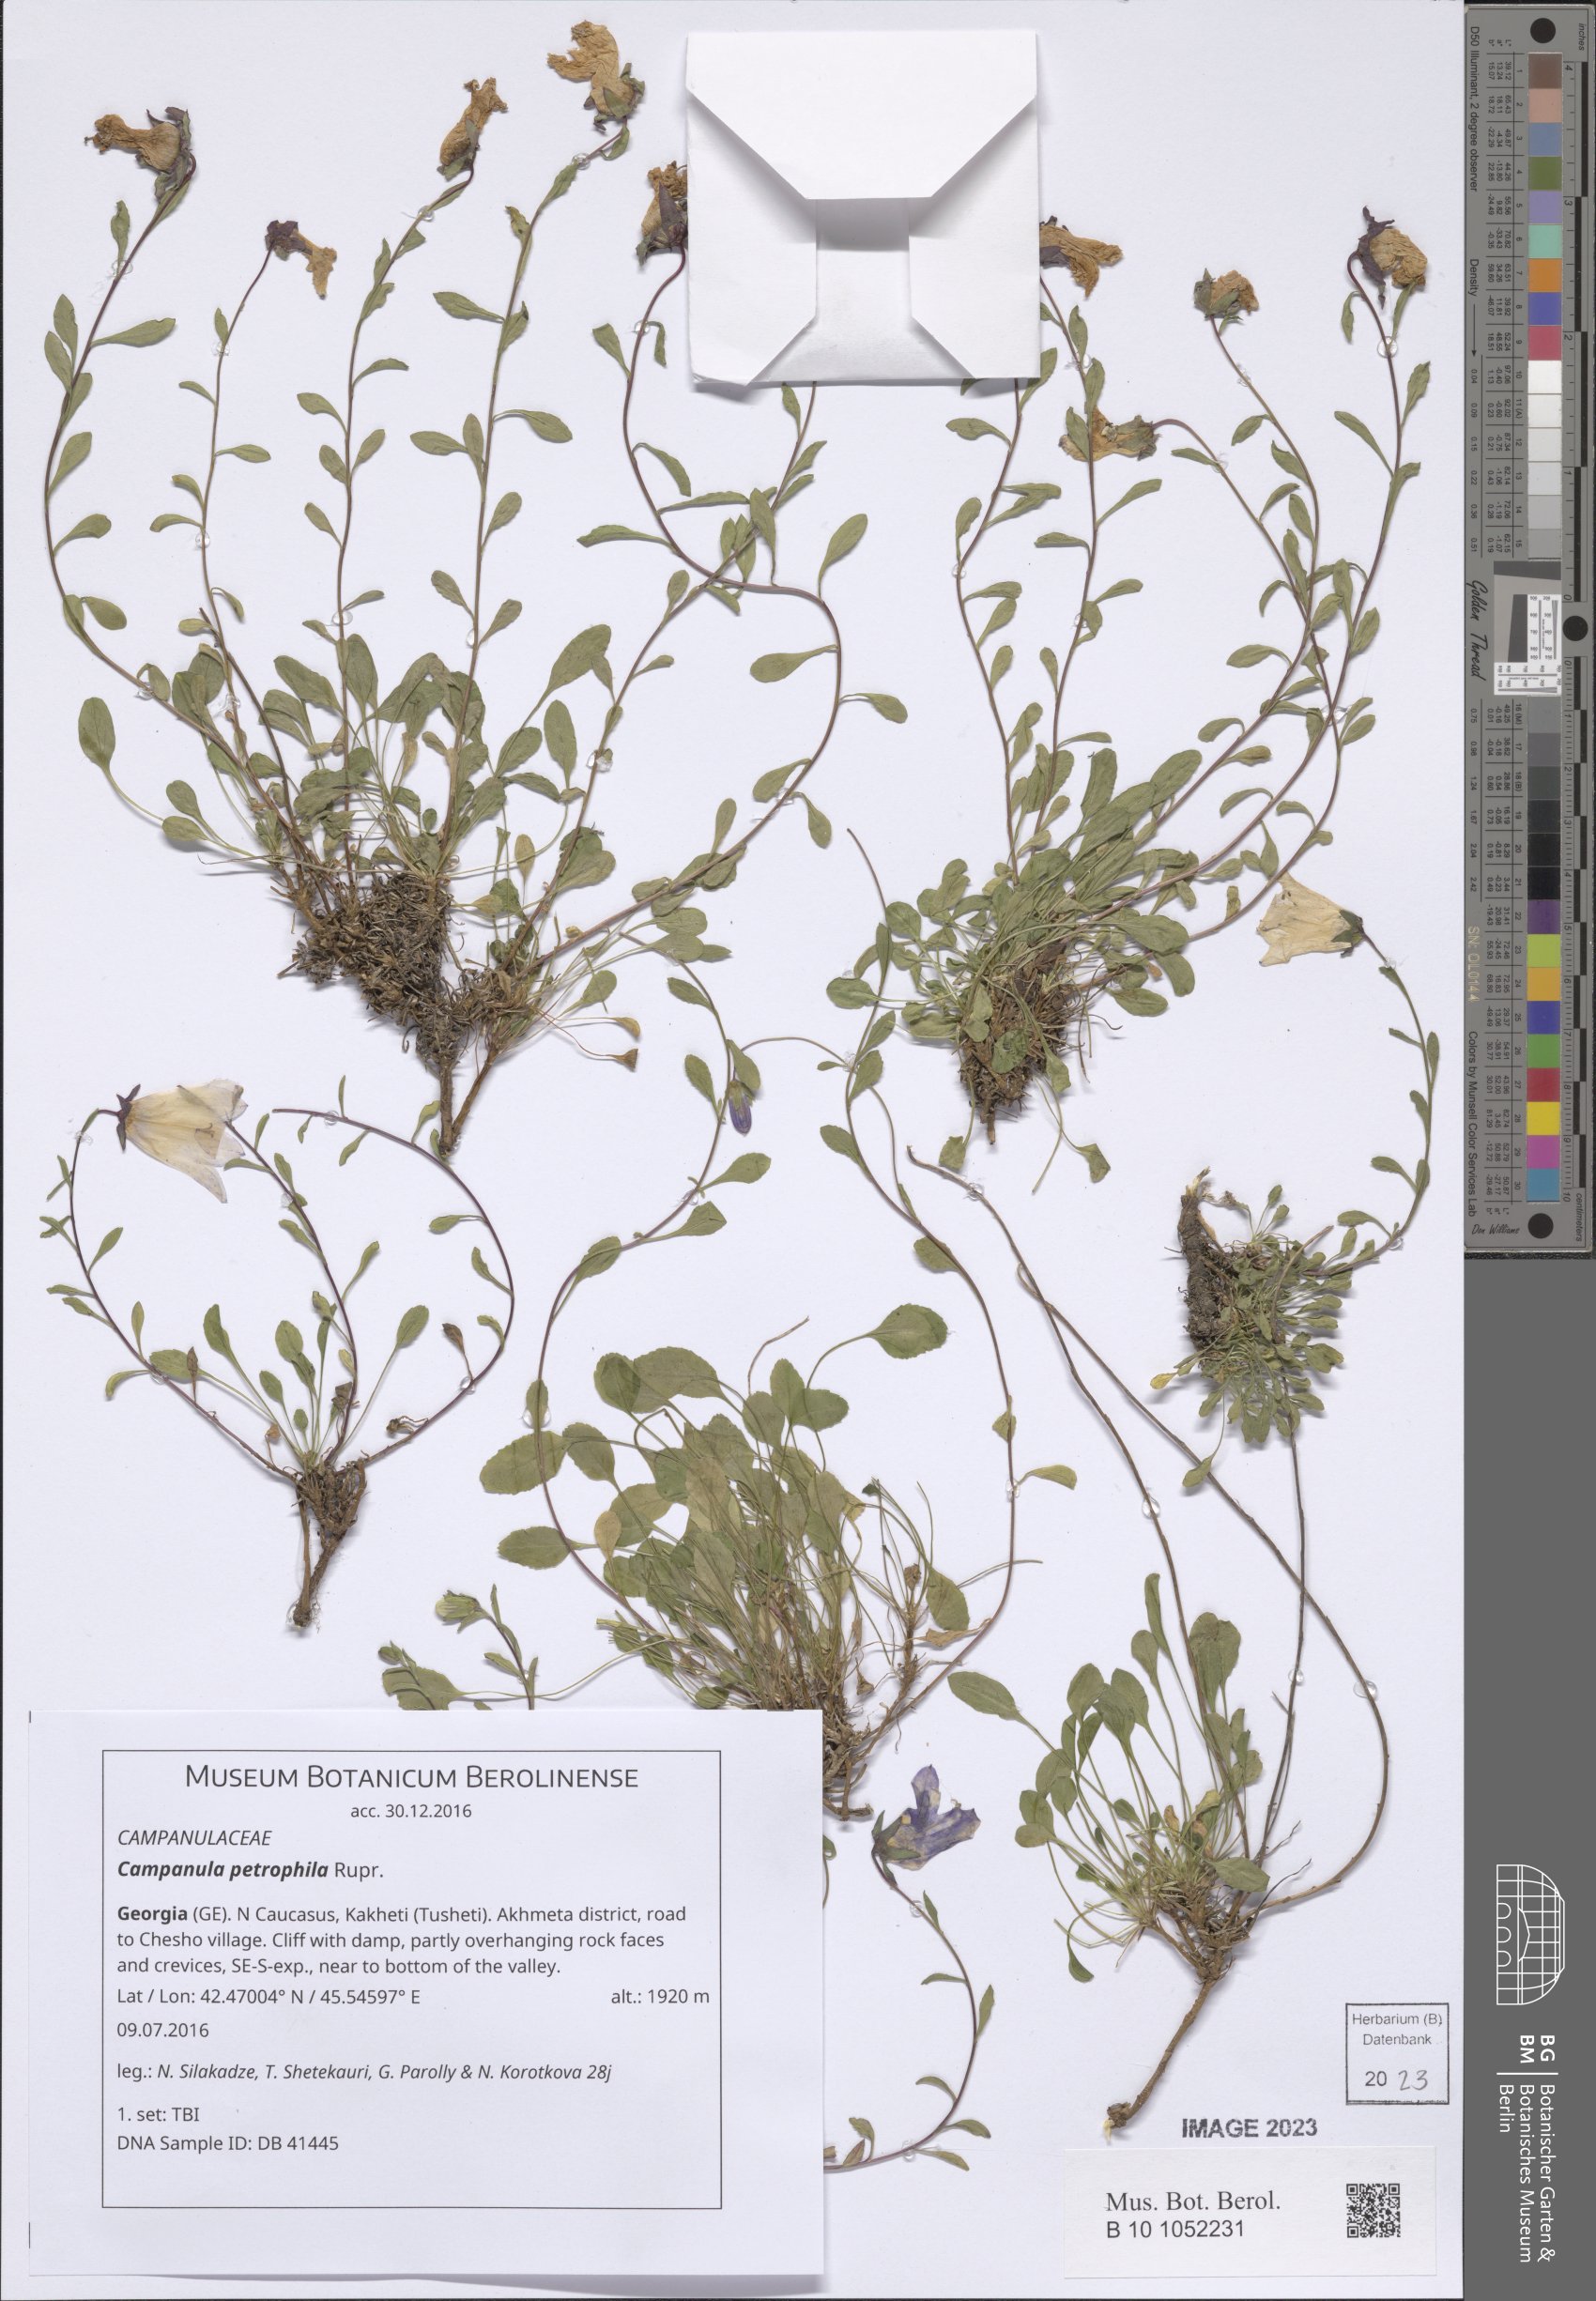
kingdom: Plantae
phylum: Tracheophyta
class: Magnoliopsida
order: Asterales
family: Campanulaceae
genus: Campanula
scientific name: Campanula petrophila
